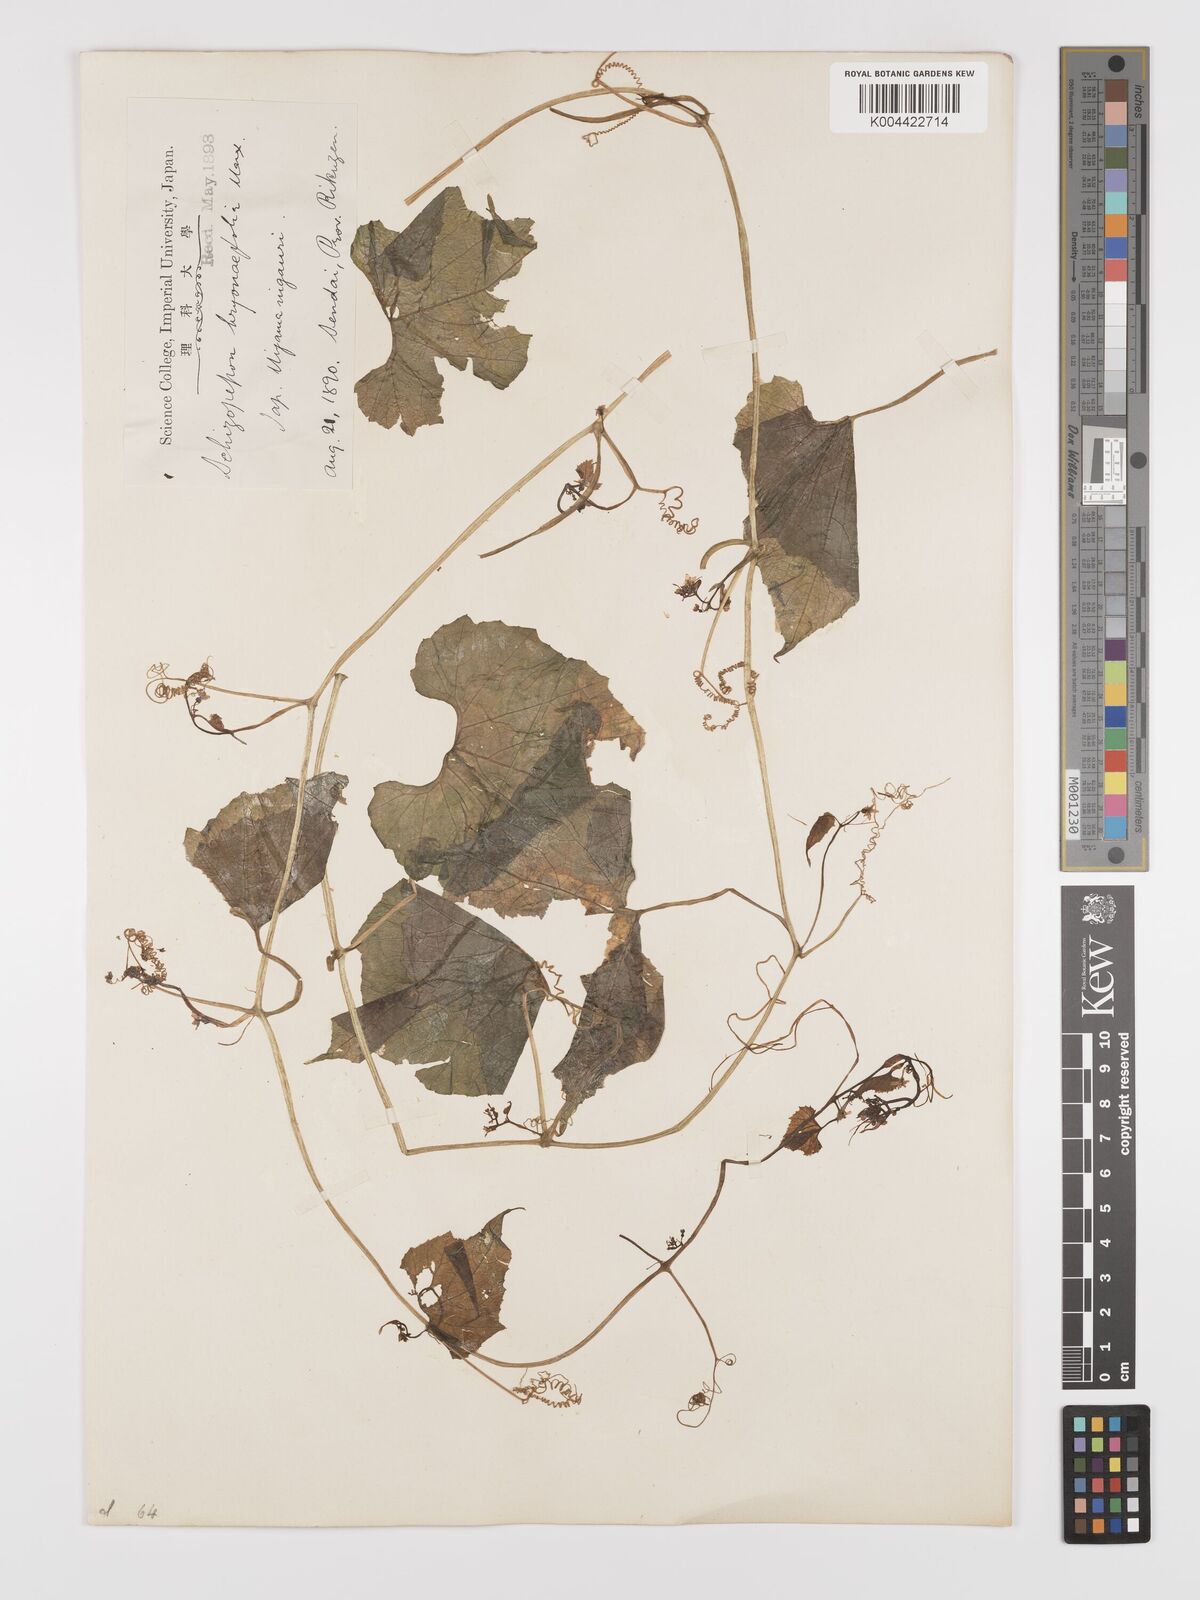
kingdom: Plantae
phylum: Tracheophyta
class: Magnoliopsida
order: Cucurbitales
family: Cucurbitaceae
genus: Schizopepon
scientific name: Schizopepon bryoniifolius
